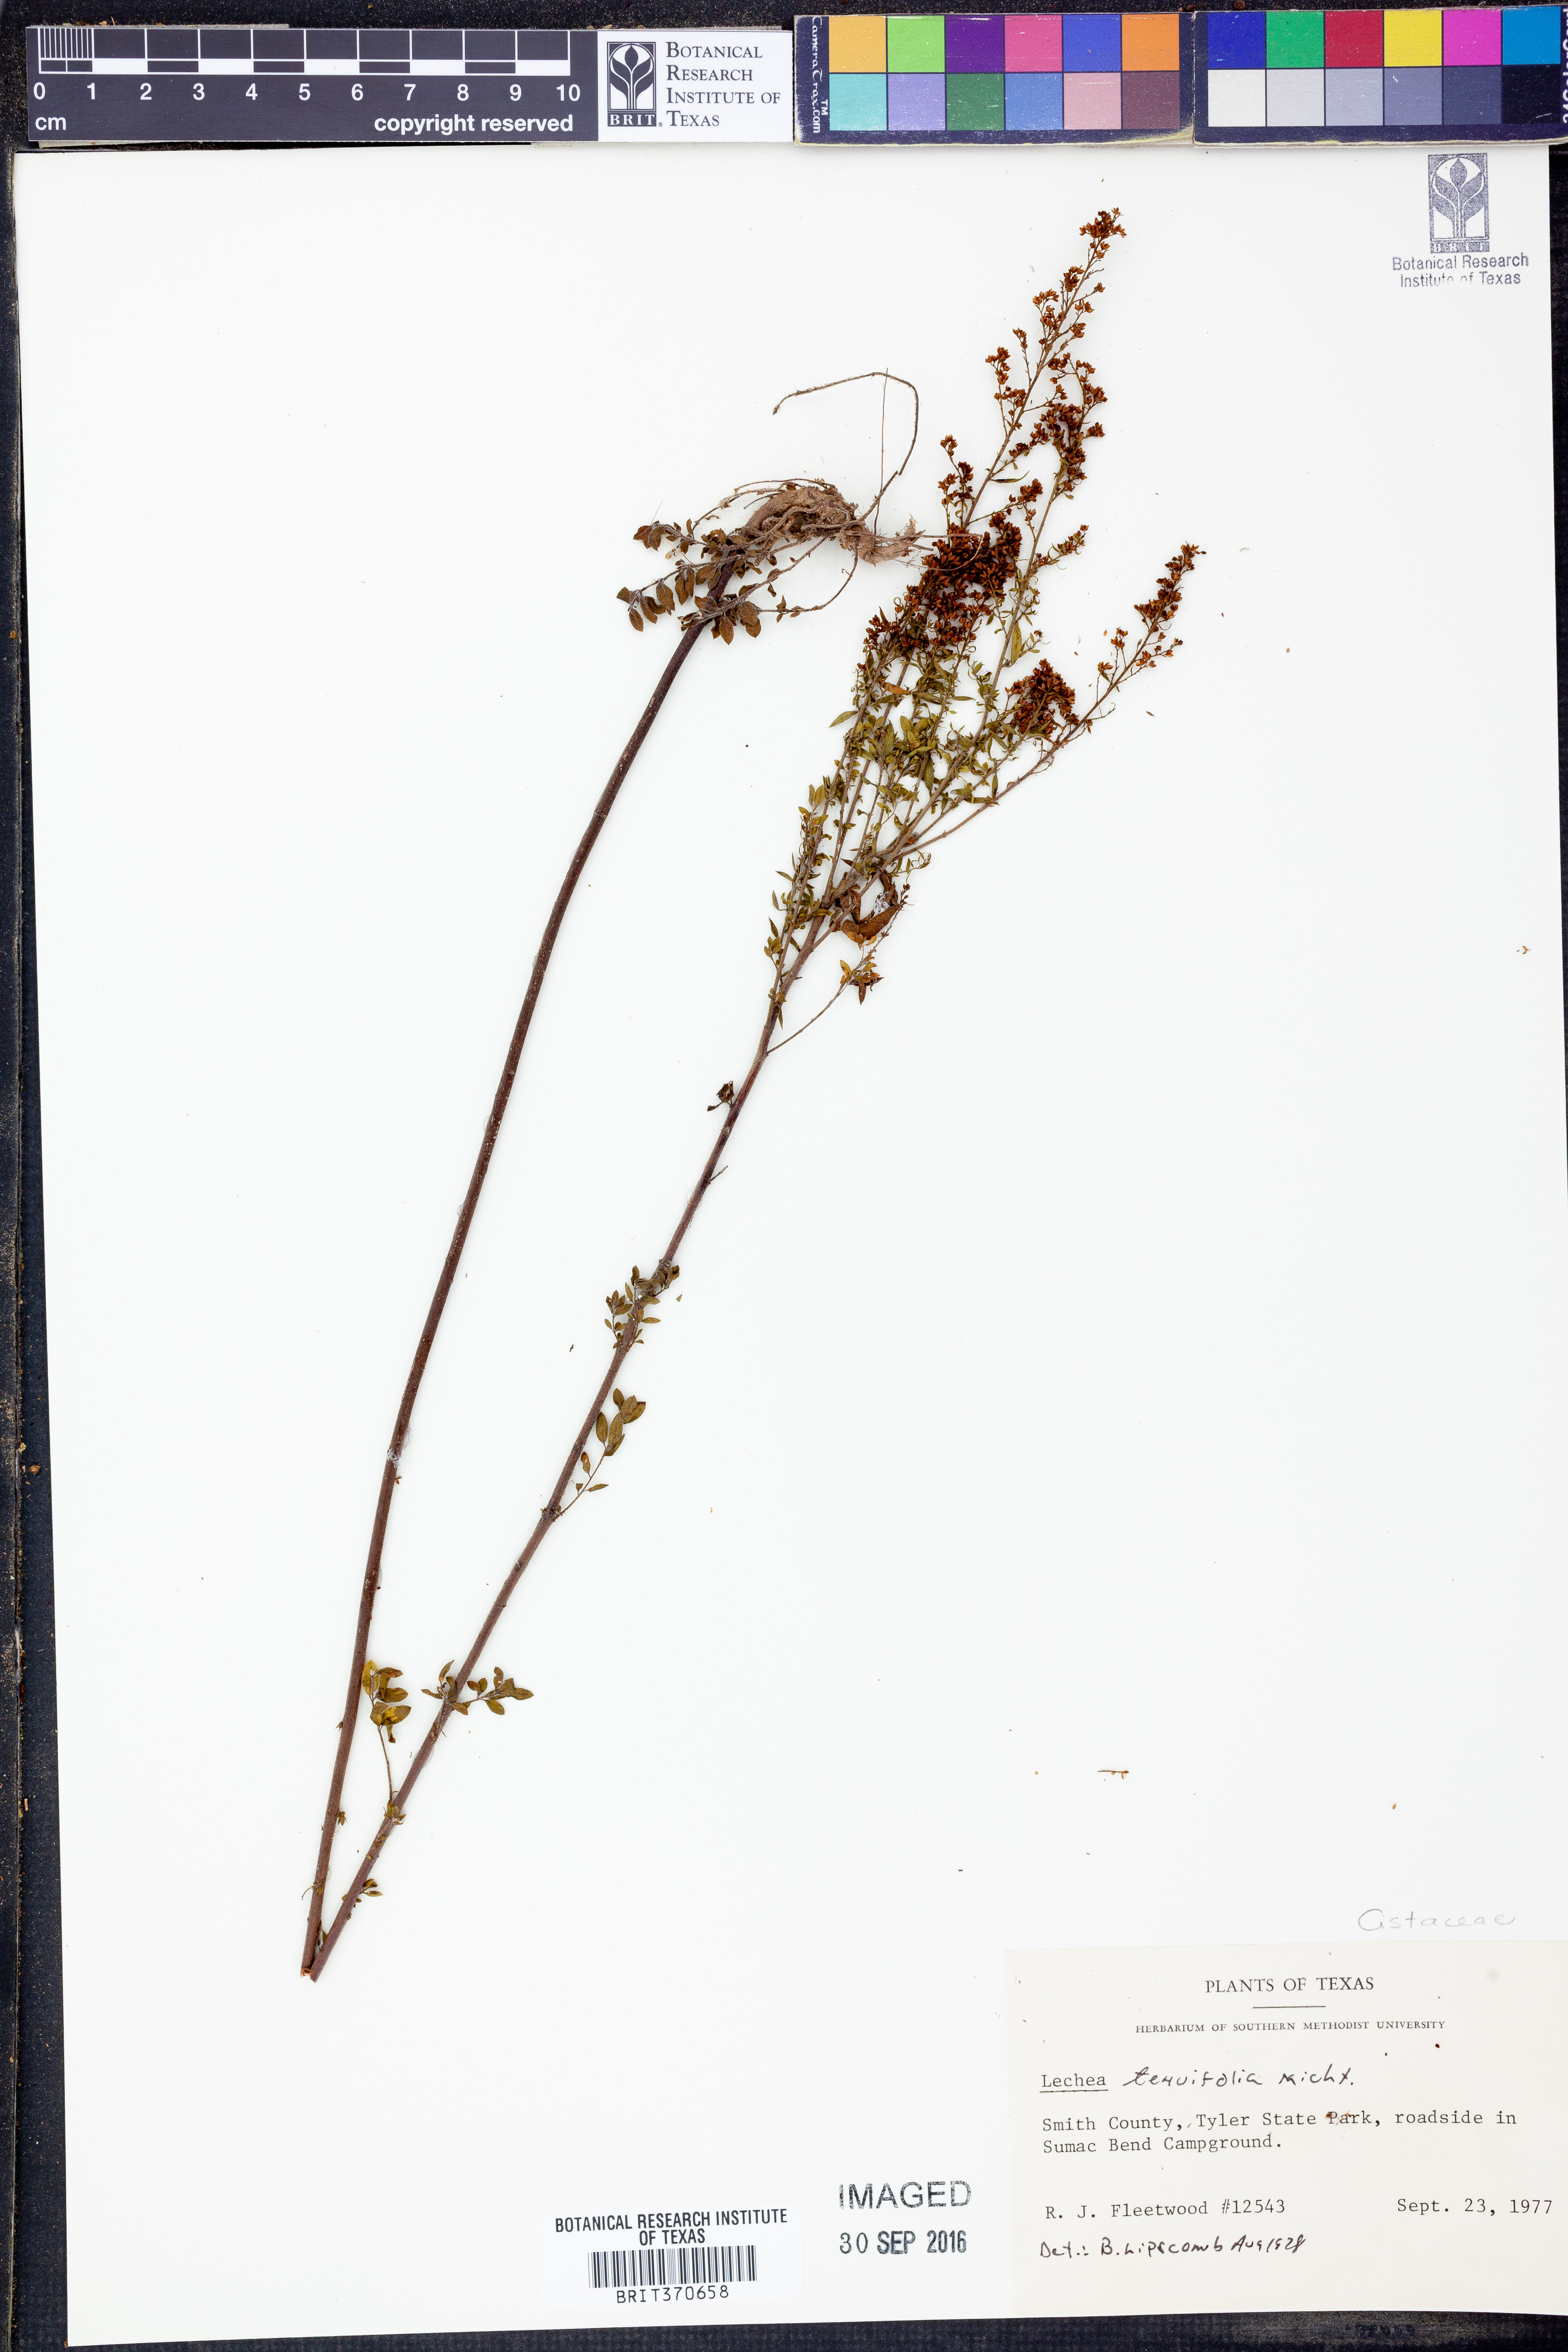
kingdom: Plantae
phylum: Tracheophyta
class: Magnoliopsida
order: Malvales
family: Cistaceae
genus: Lechea
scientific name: Lechea tenuifolia
